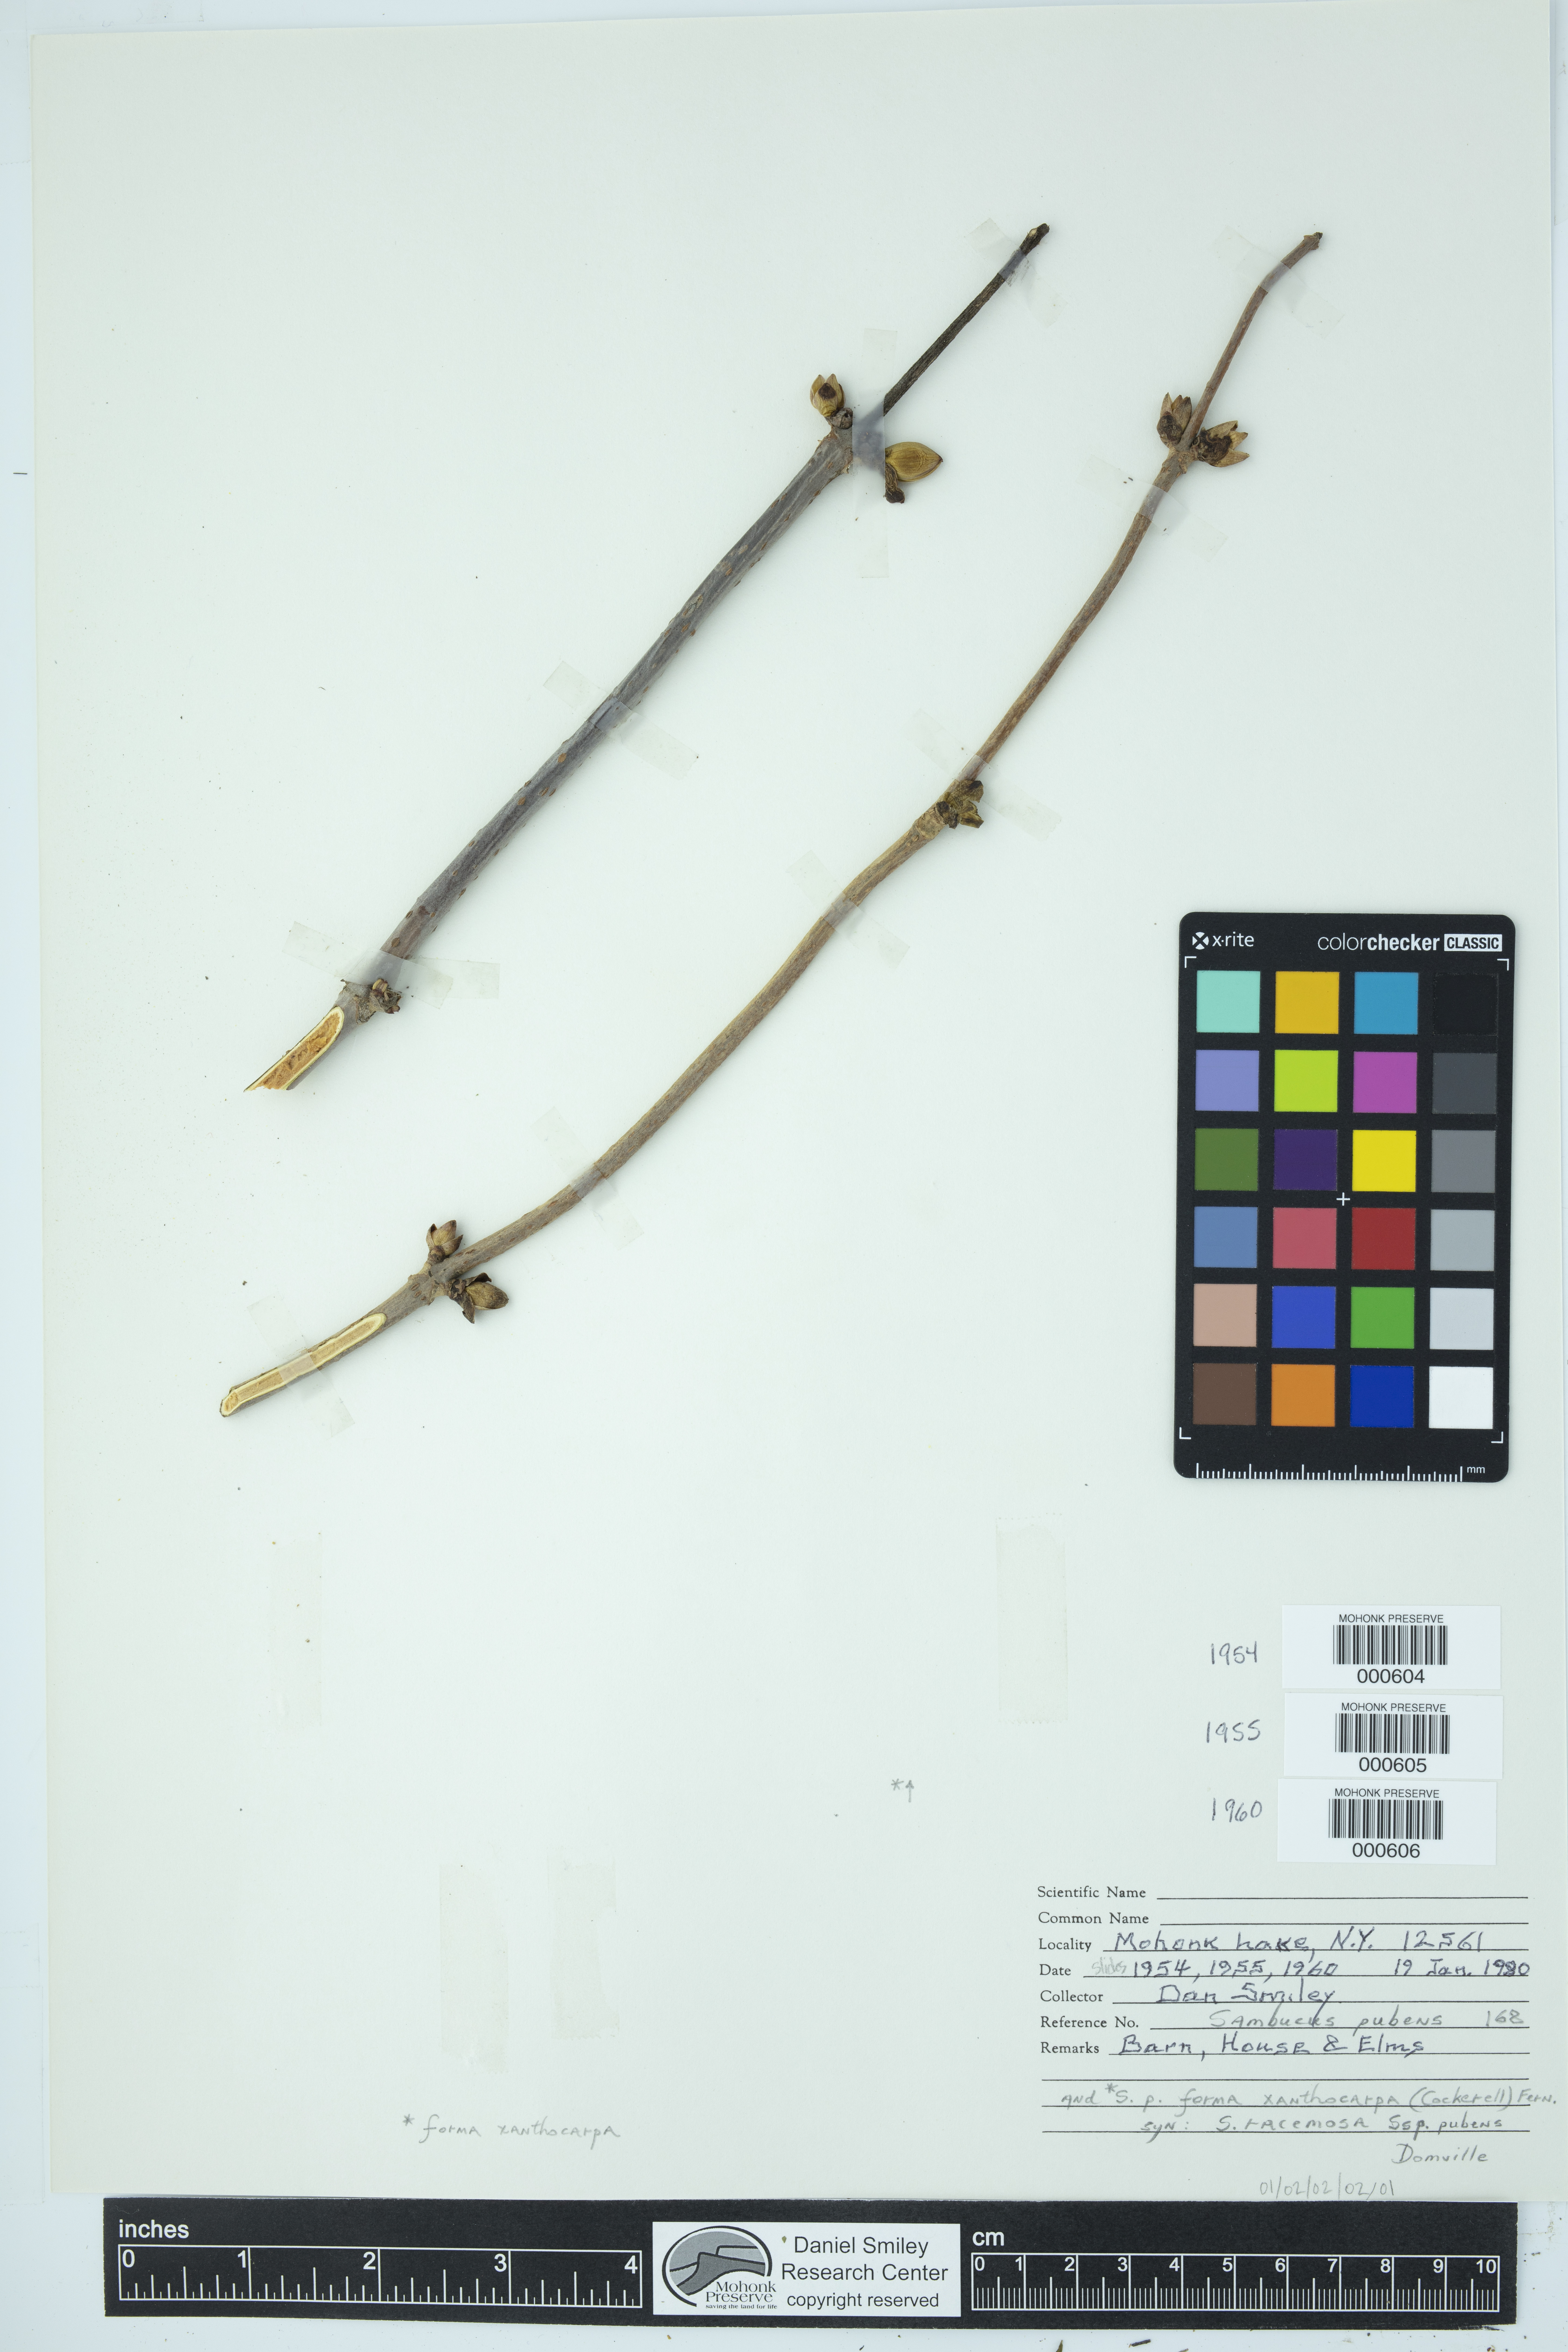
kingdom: Plantae
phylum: Tracheophyta
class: Magnoliopsida
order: Dipsacales
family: Viburnaceae
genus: Sambucus
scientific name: Sambucus racemosa
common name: Red-berried elder
